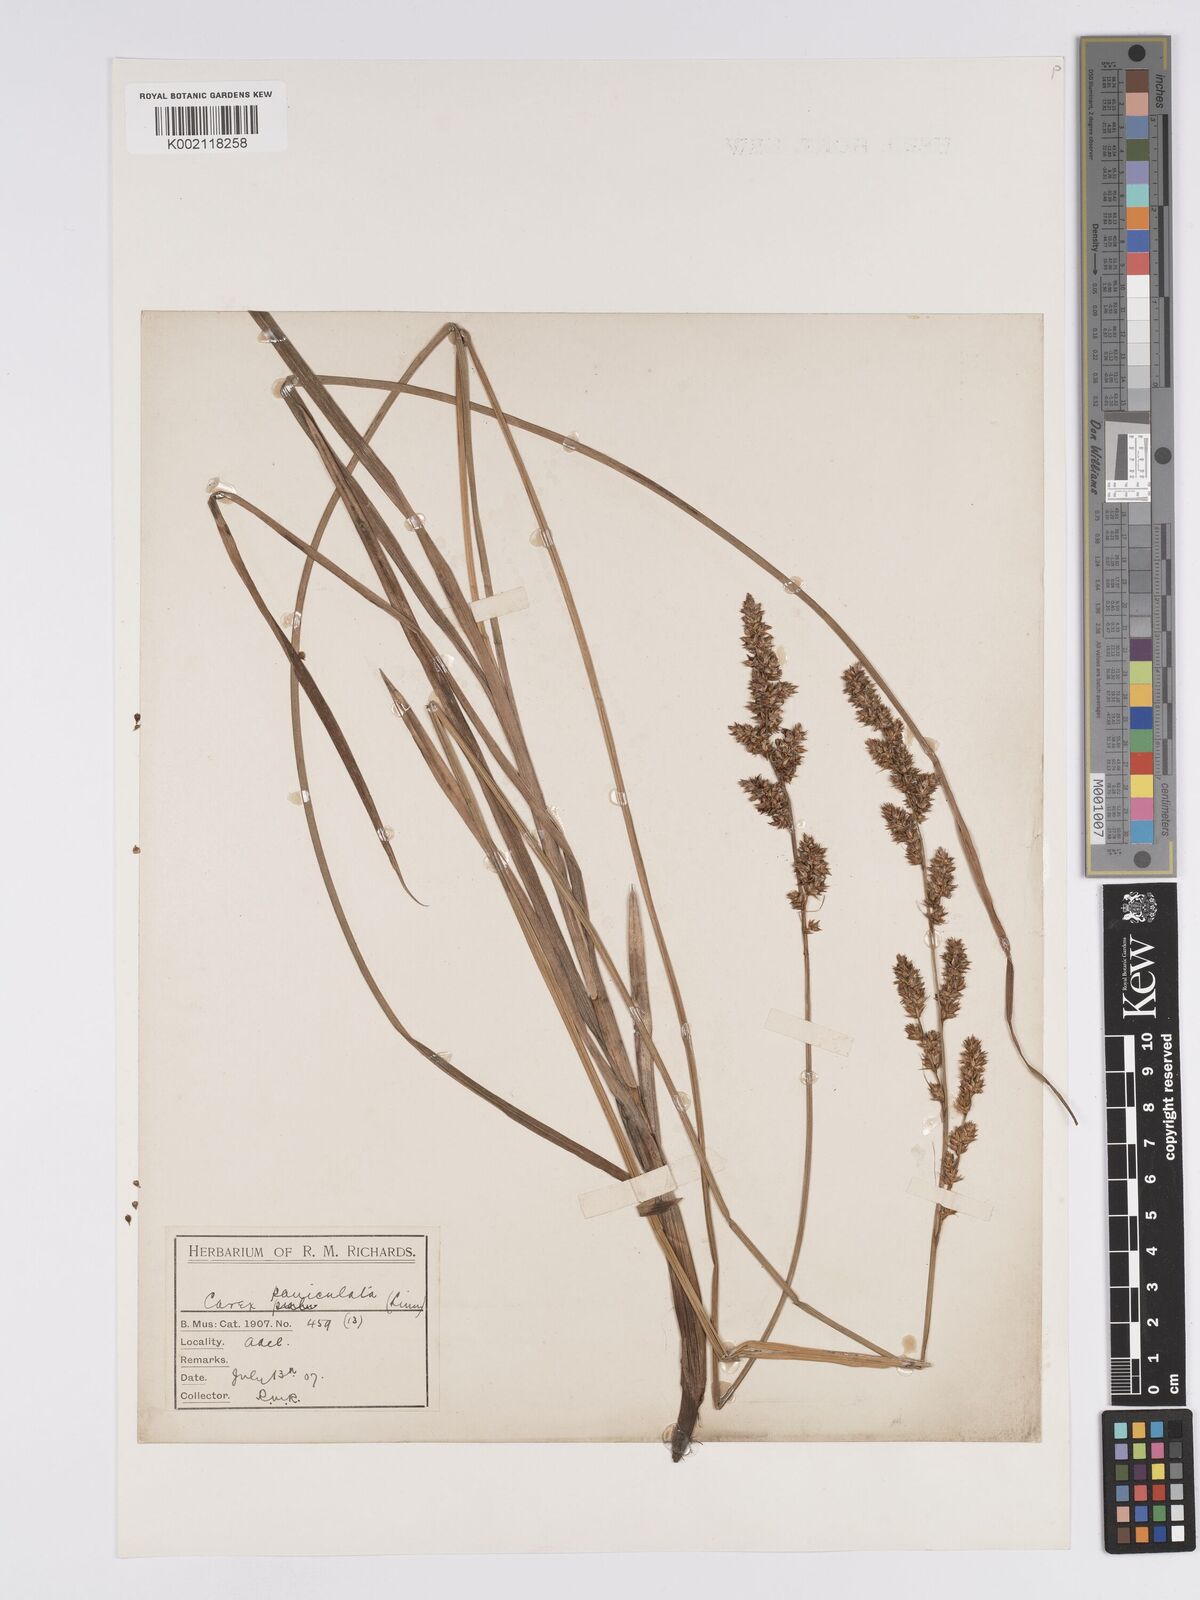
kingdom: Plantae
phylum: Tracheophyta
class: Liliopsida
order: Poales
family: Cyperaceae
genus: Carex
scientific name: Carex paniculata
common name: Greater tussock-sedge
